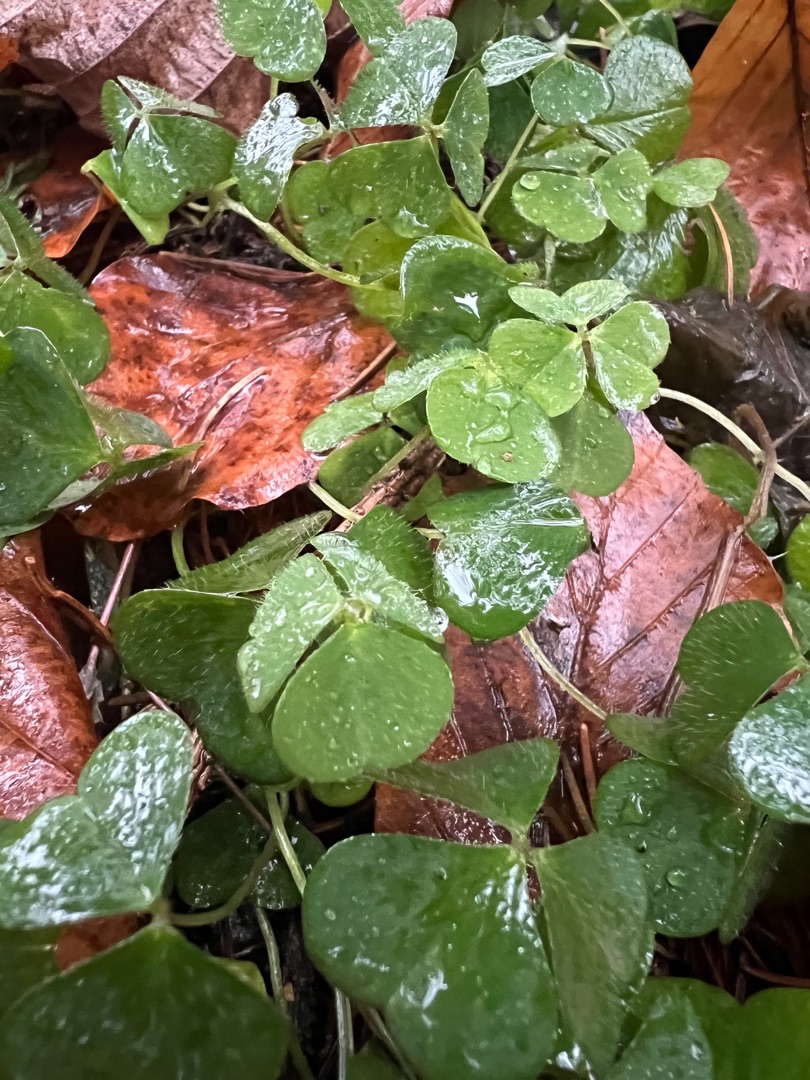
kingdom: Plantae
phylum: Tracheophyta
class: Magnoliopsida
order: Oxalidales
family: Oxalidaceae
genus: Oxalis
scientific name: Oxalis acetosella
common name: Skovsyre
